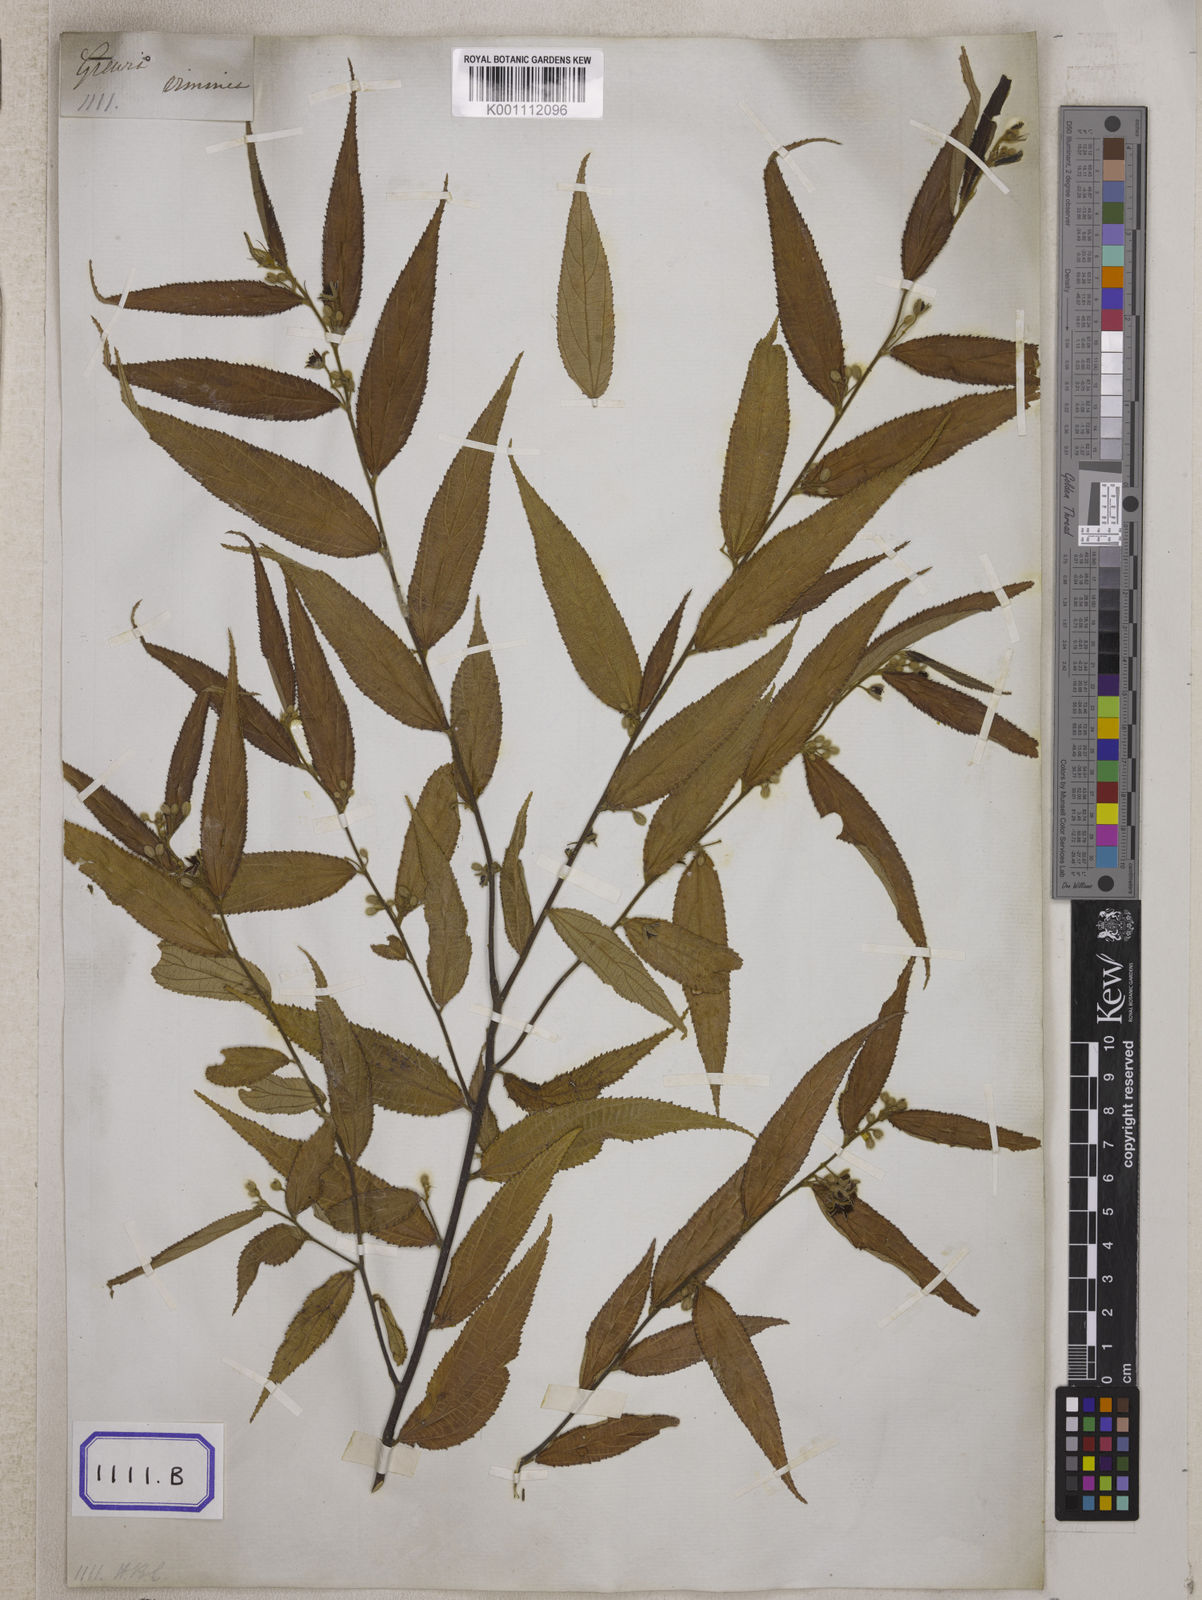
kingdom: Plantae
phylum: Tracheophyta
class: Magnoliopsida
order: Malvales
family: Malvaceae
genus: Grewia
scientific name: Grewia
